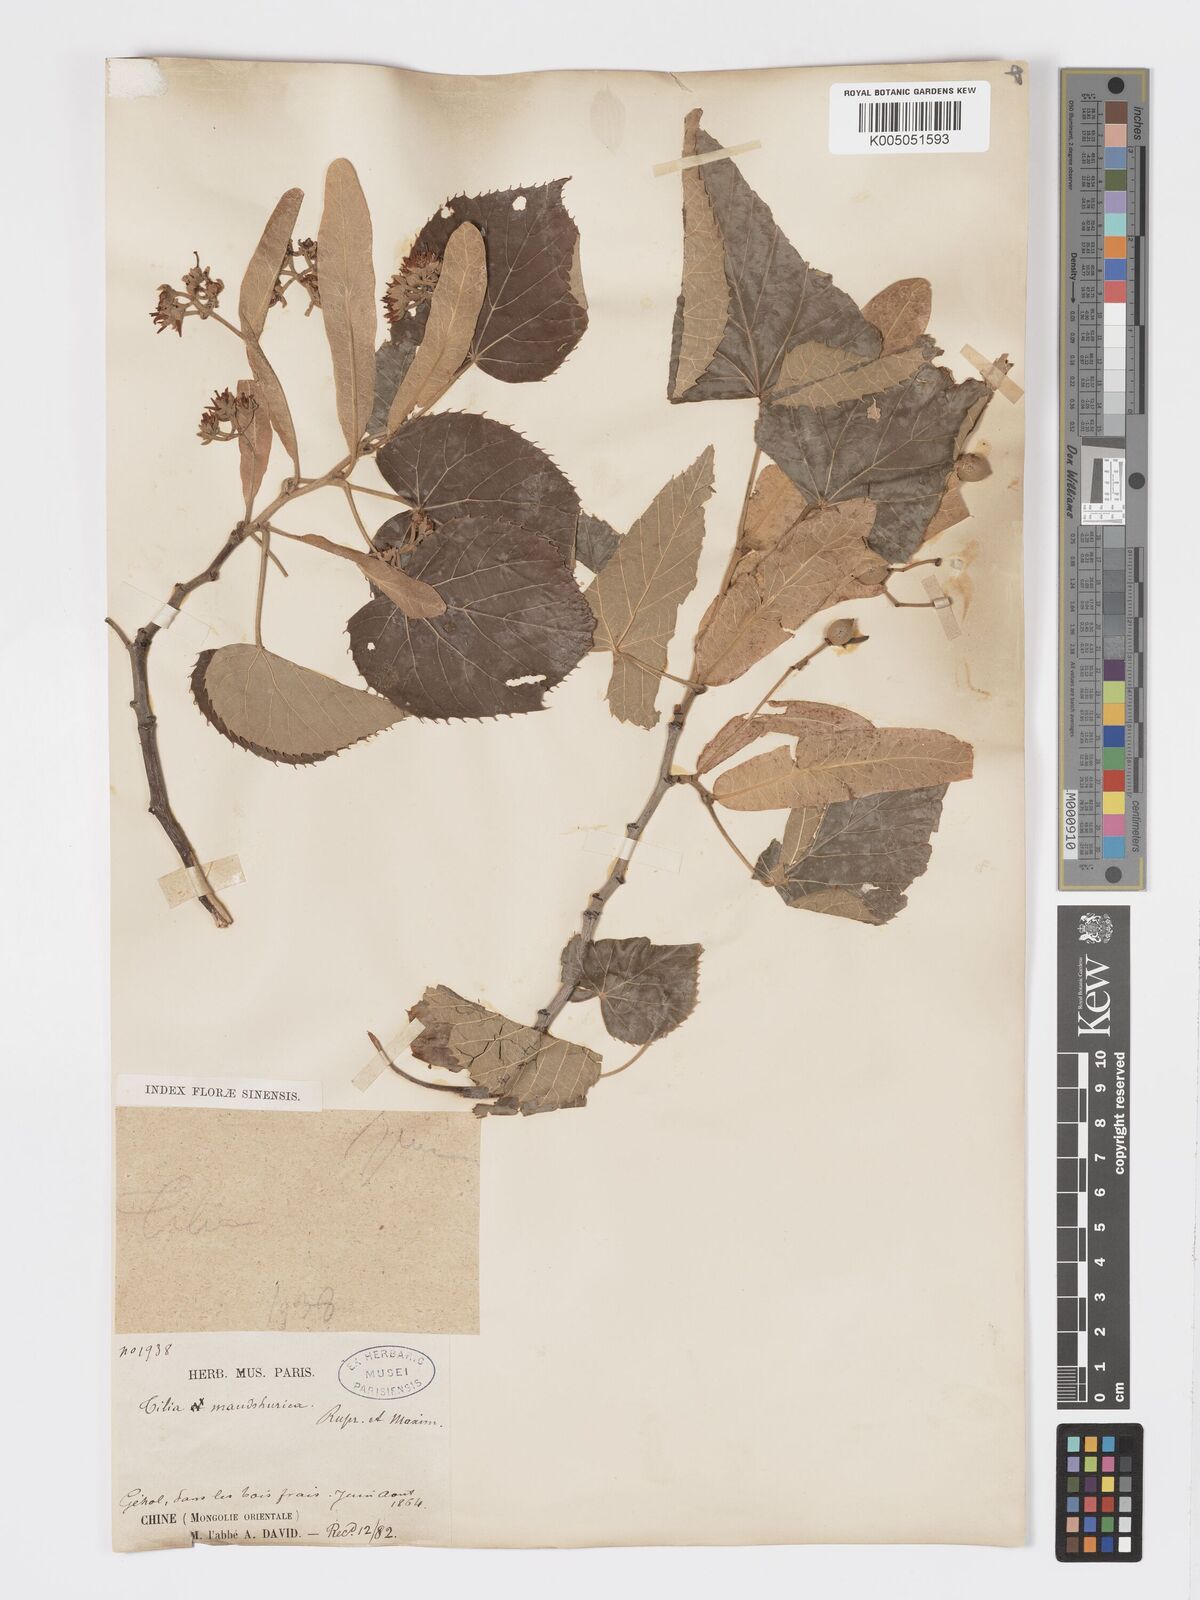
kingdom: Plantae
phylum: Tracheophyta
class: Magnoliopsida
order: Malvales
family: Malvaceae
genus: Tilia
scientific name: Tilia mandshurica
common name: Manchurian linden
